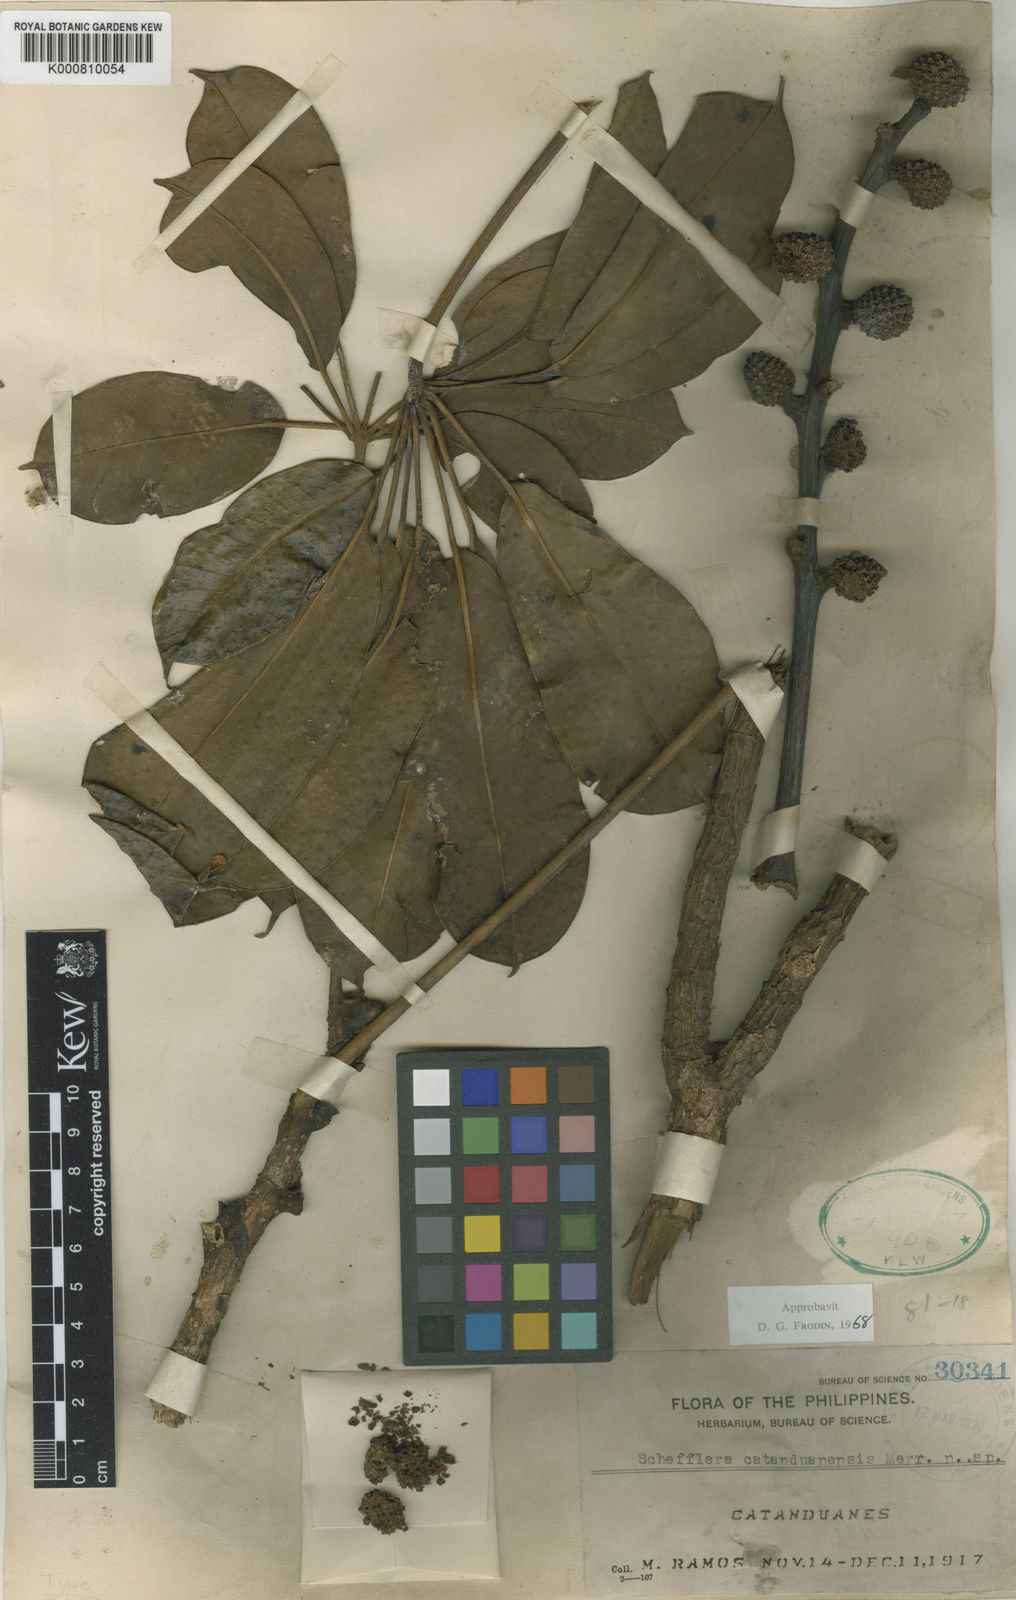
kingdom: Plantae
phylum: Tracheophyta
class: Magnoliopsida
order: Apiales
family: Araliaceae
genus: Heptapleurum
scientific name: Heptapleurum catanduanense
